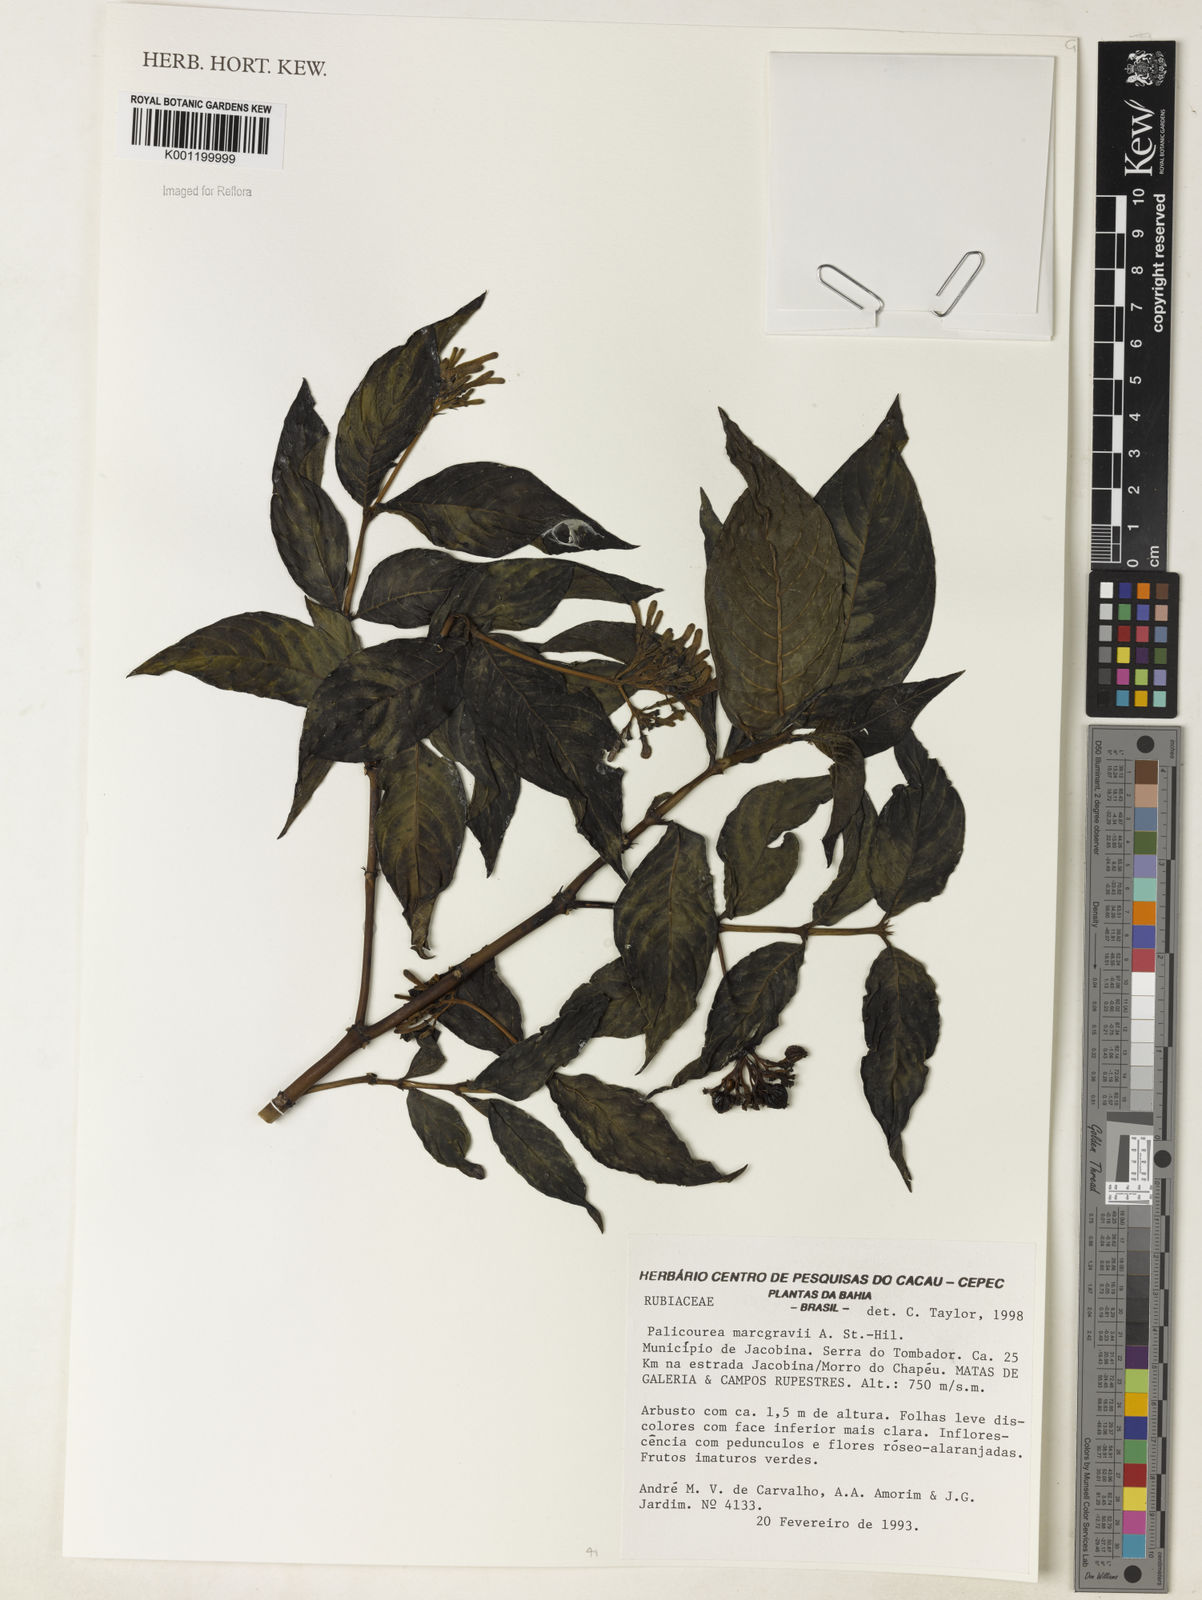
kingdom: Plantae
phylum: Tracheophyta
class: Magnoliopsida
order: Gentianales
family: Rubiaceae
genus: Palicourea
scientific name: Palicourea marcgravii
